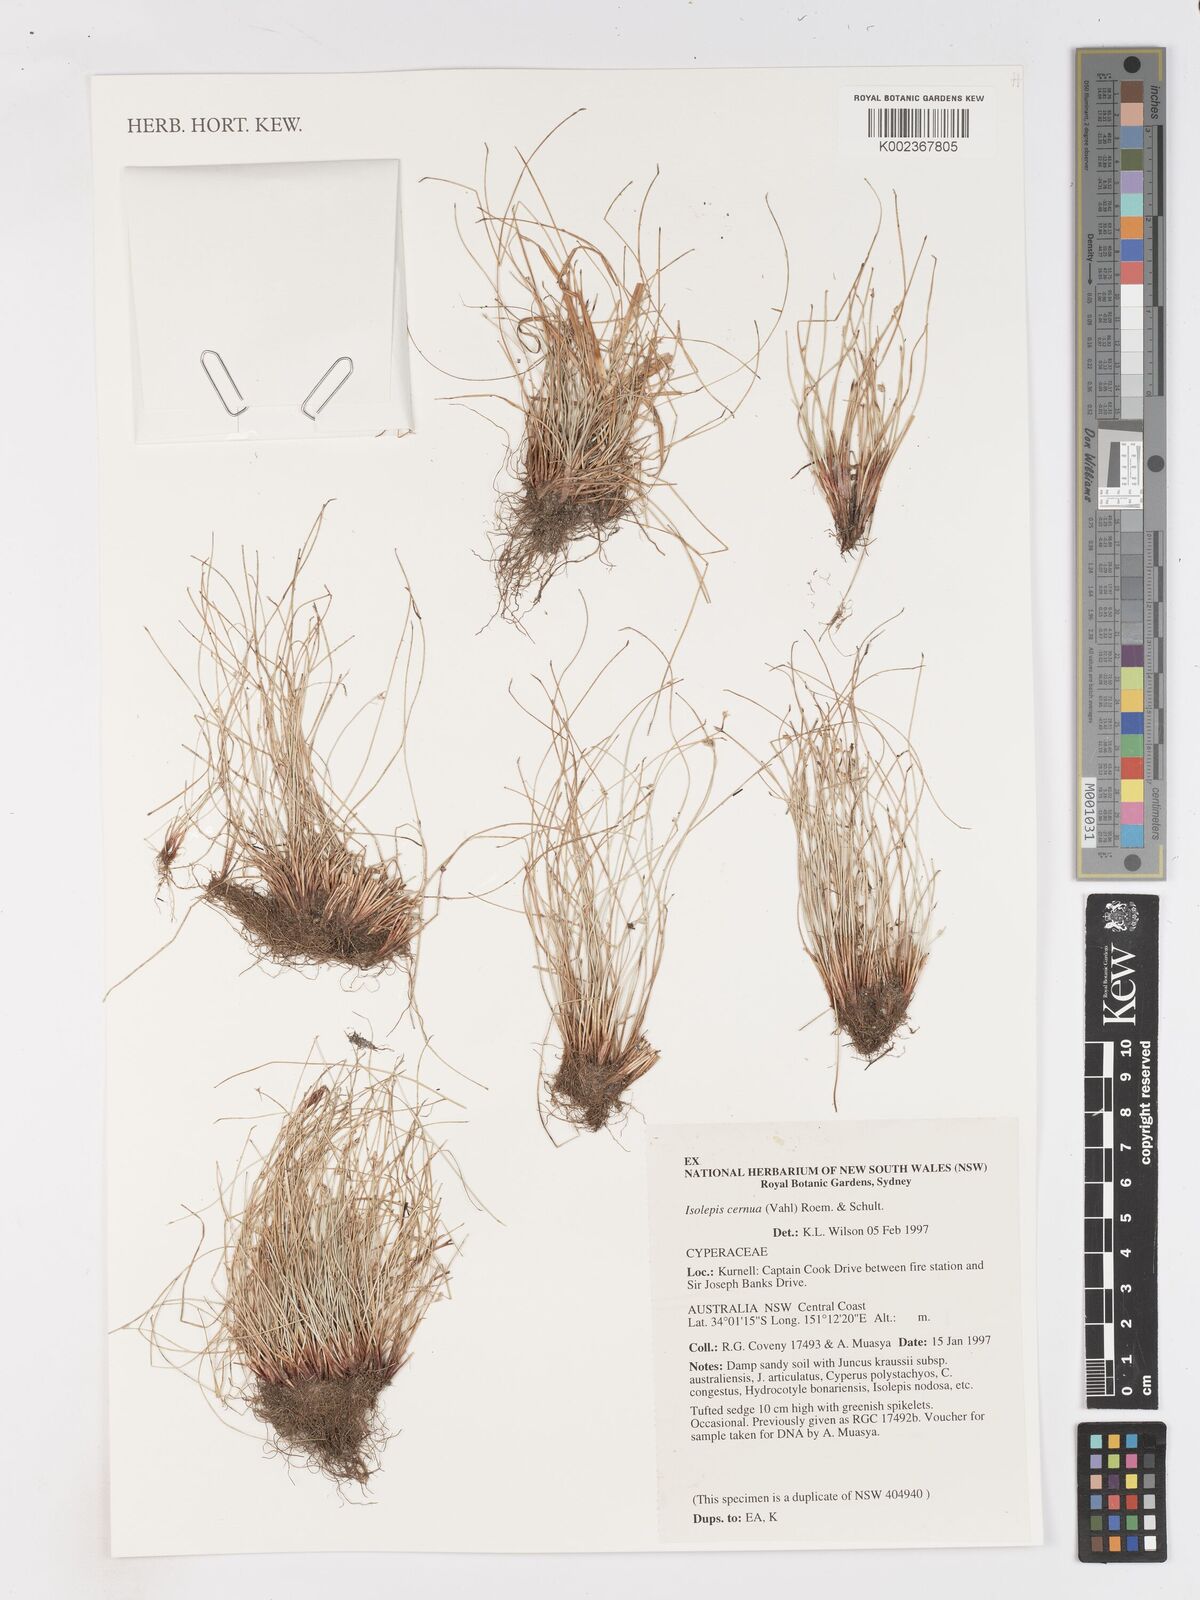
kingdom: Plantae
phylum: Tracheophyta
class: Liliopsida
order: Poales
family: Cyperaceae
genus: Isolepis
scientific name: Isolepis cernua
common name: Slender club-rush
